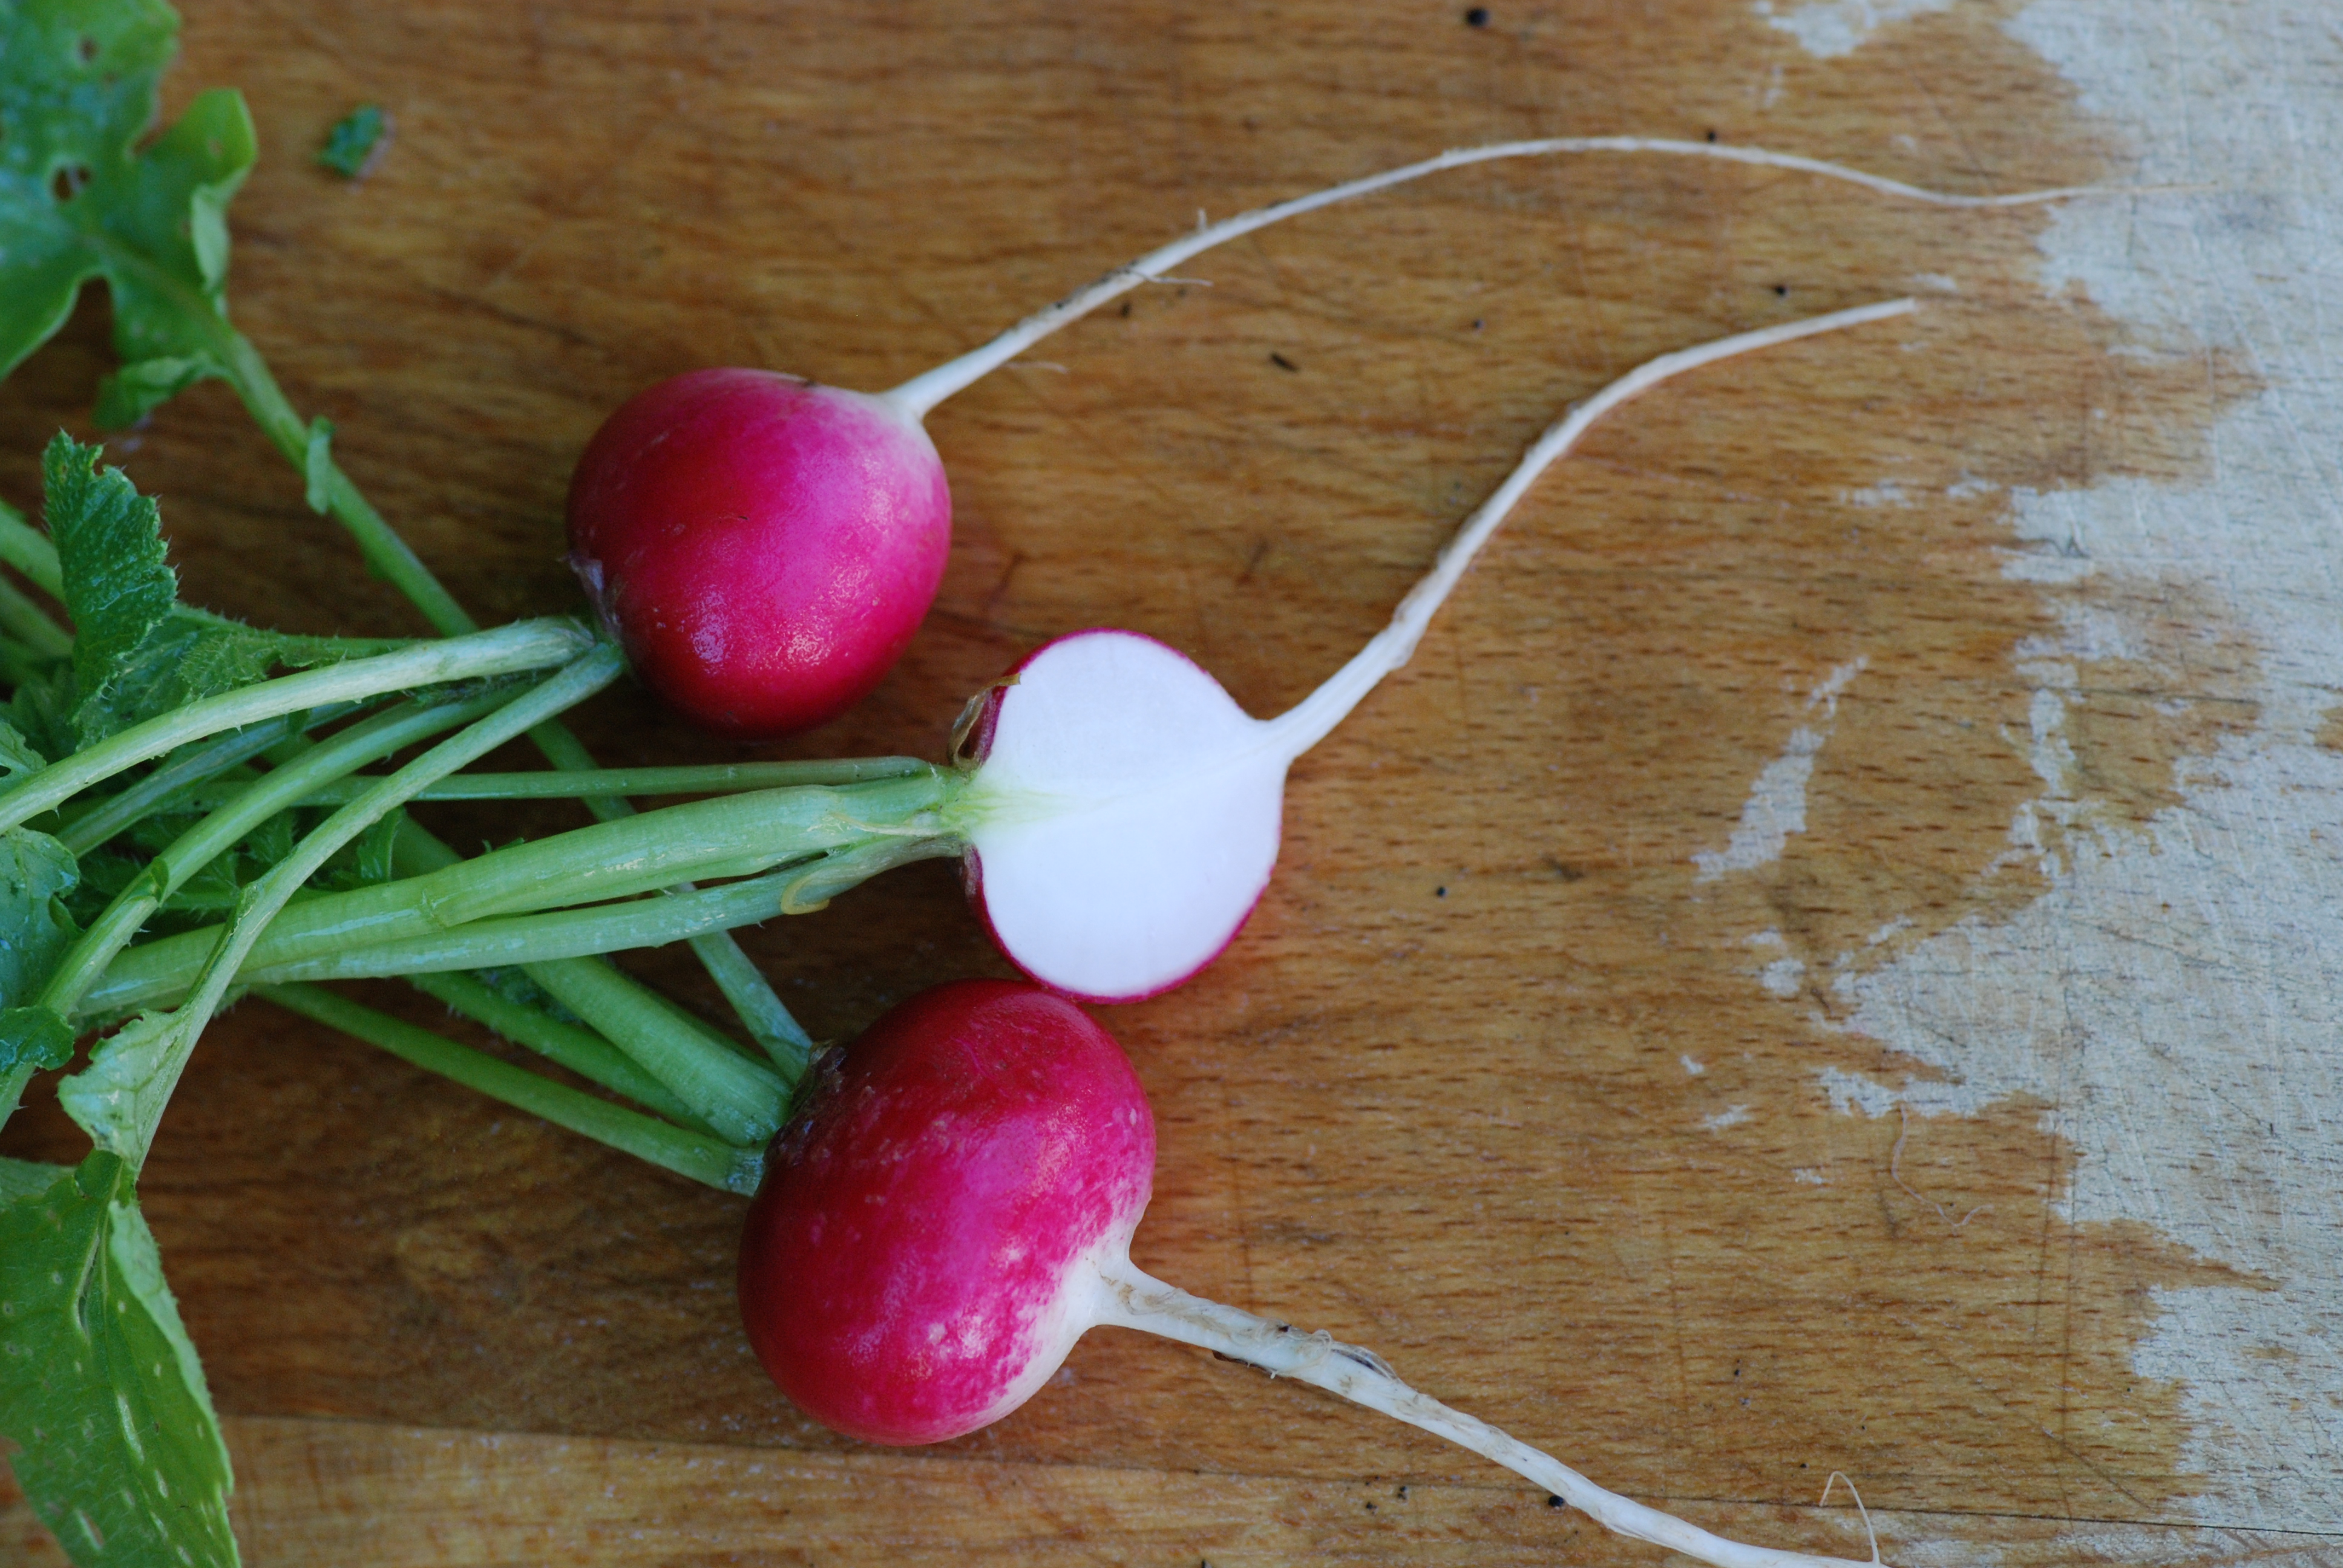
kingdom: Plantae
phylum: Tracheophyta
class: Magnoliopsida
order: Brassicales
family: Brassicaceae
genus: Raphanus
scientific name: Raphanus sativus
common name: Cultivated radish
